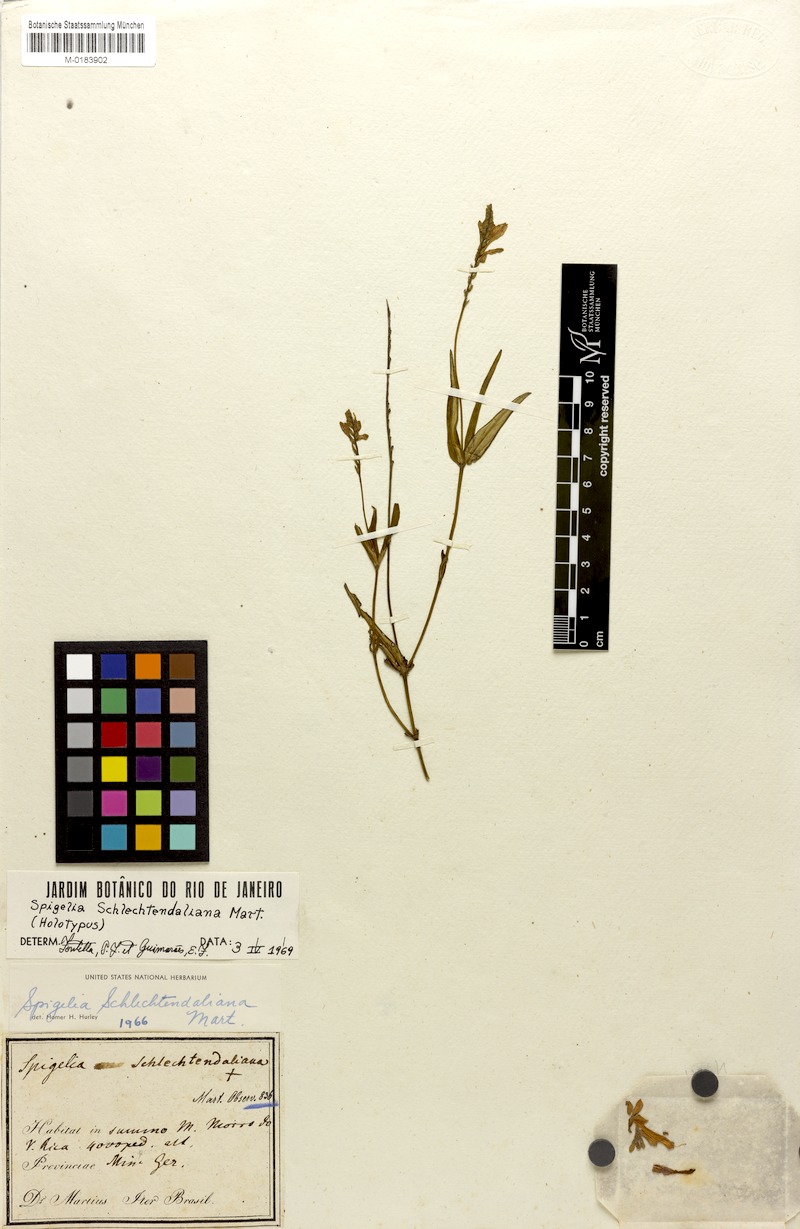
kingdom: Plantae
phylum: Tracheophyta
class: Magnoliopsida
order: Gentianales
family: Loganiaceae
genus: Spigelia
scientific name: Spigelia schlechtendaliana
